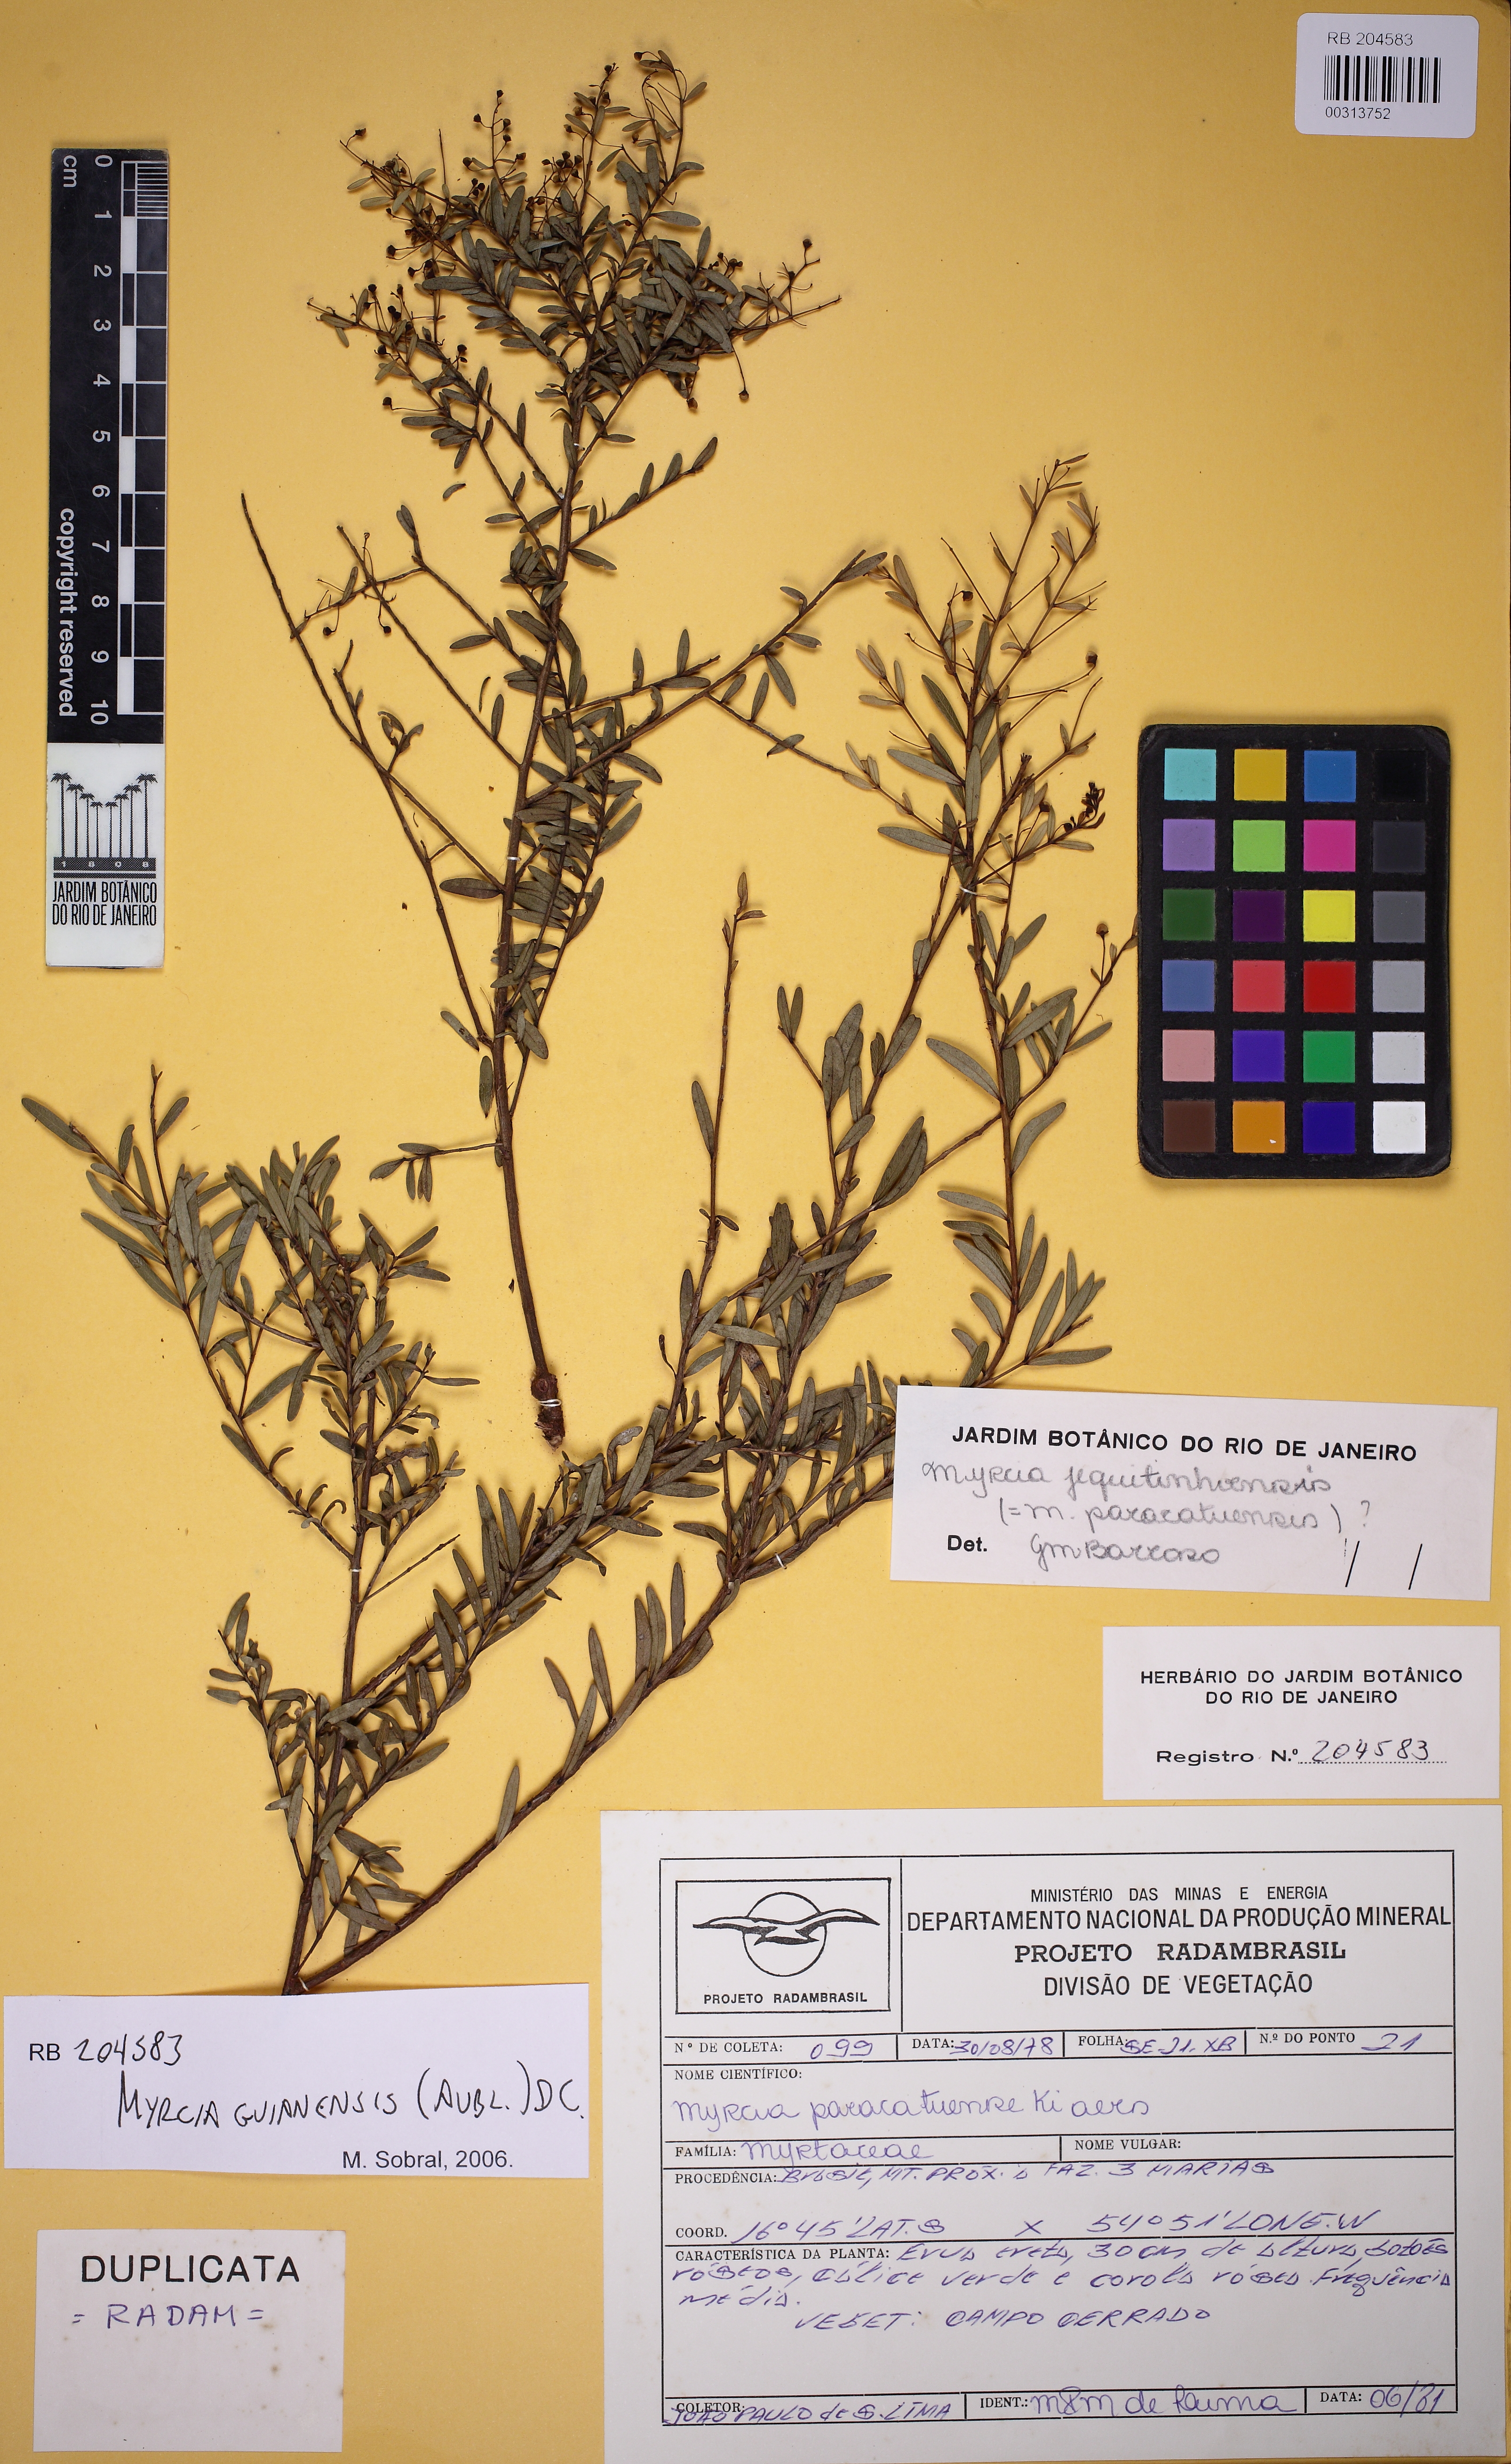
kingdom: Plantae
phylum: Tracheophyta
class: Magnoliopsida
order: Myrtales
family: Myrtaceae
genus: Myrcia
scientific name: Myrcia
